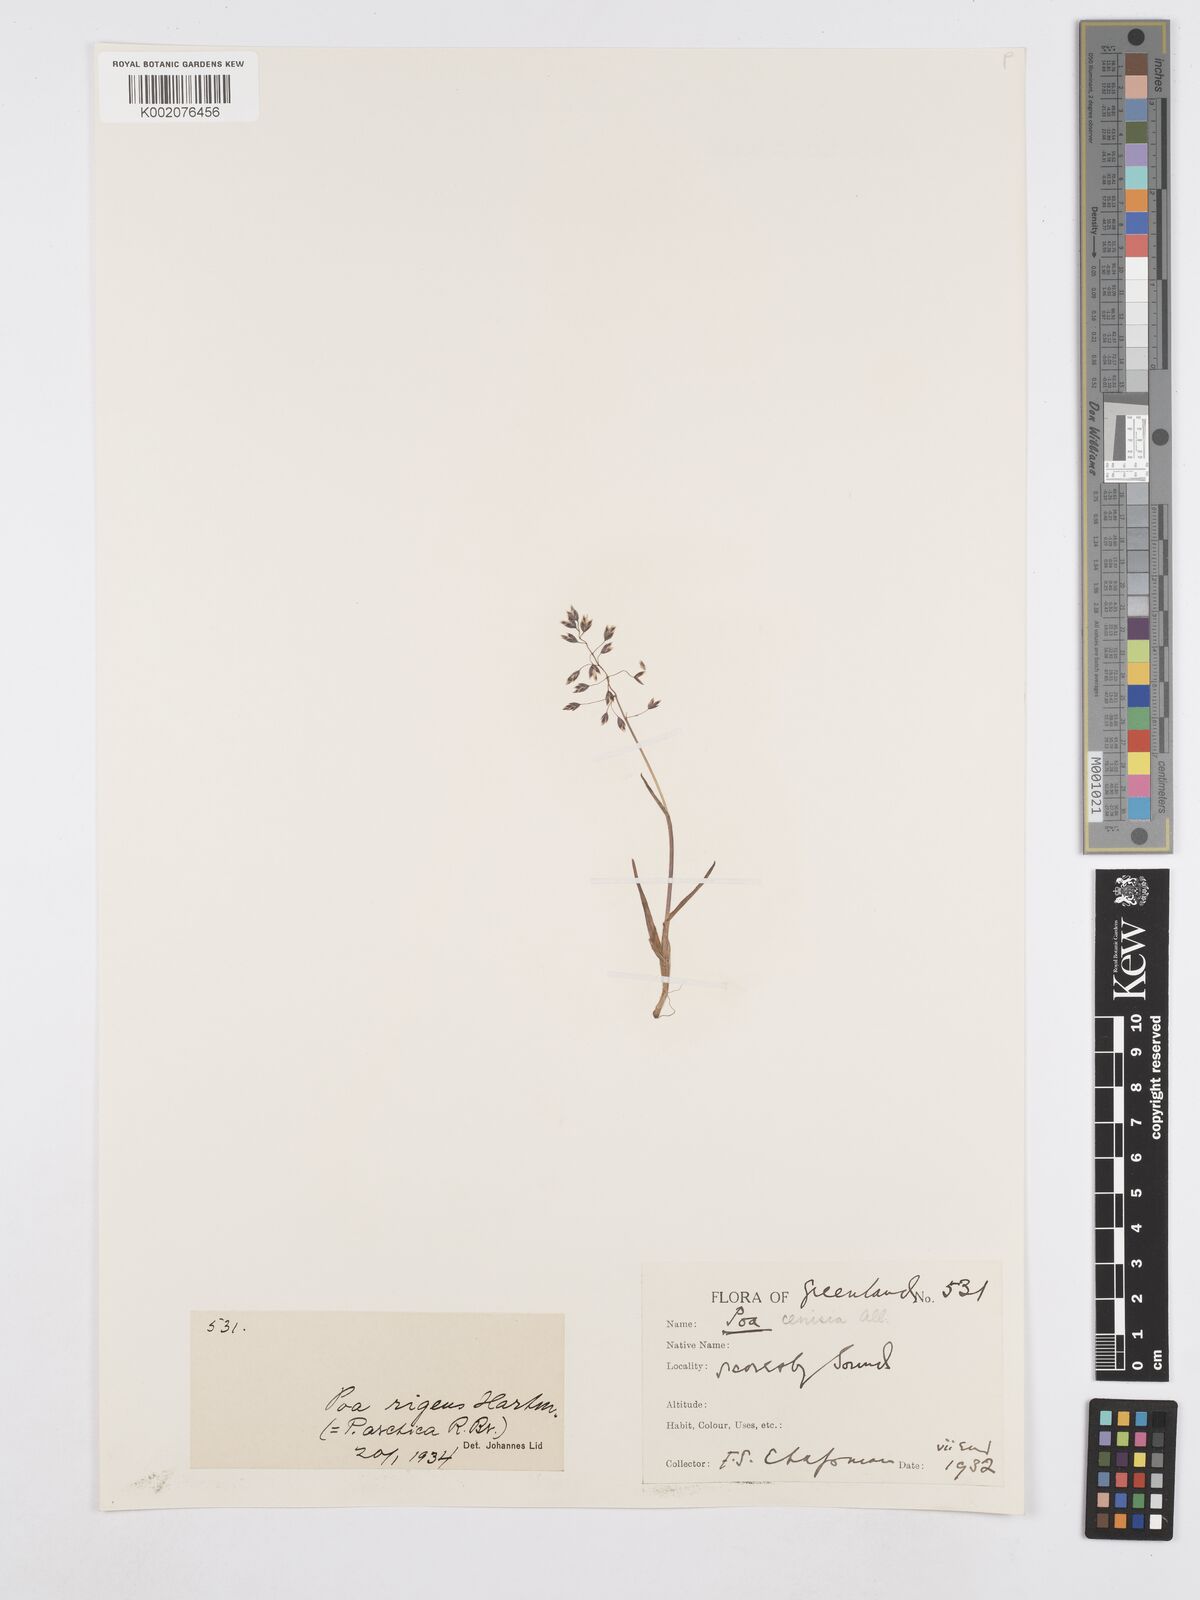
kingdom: Plantae
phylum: Tracheophyta
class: Liliopsida
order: Poales
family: Poaceae
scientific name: Poaceae
